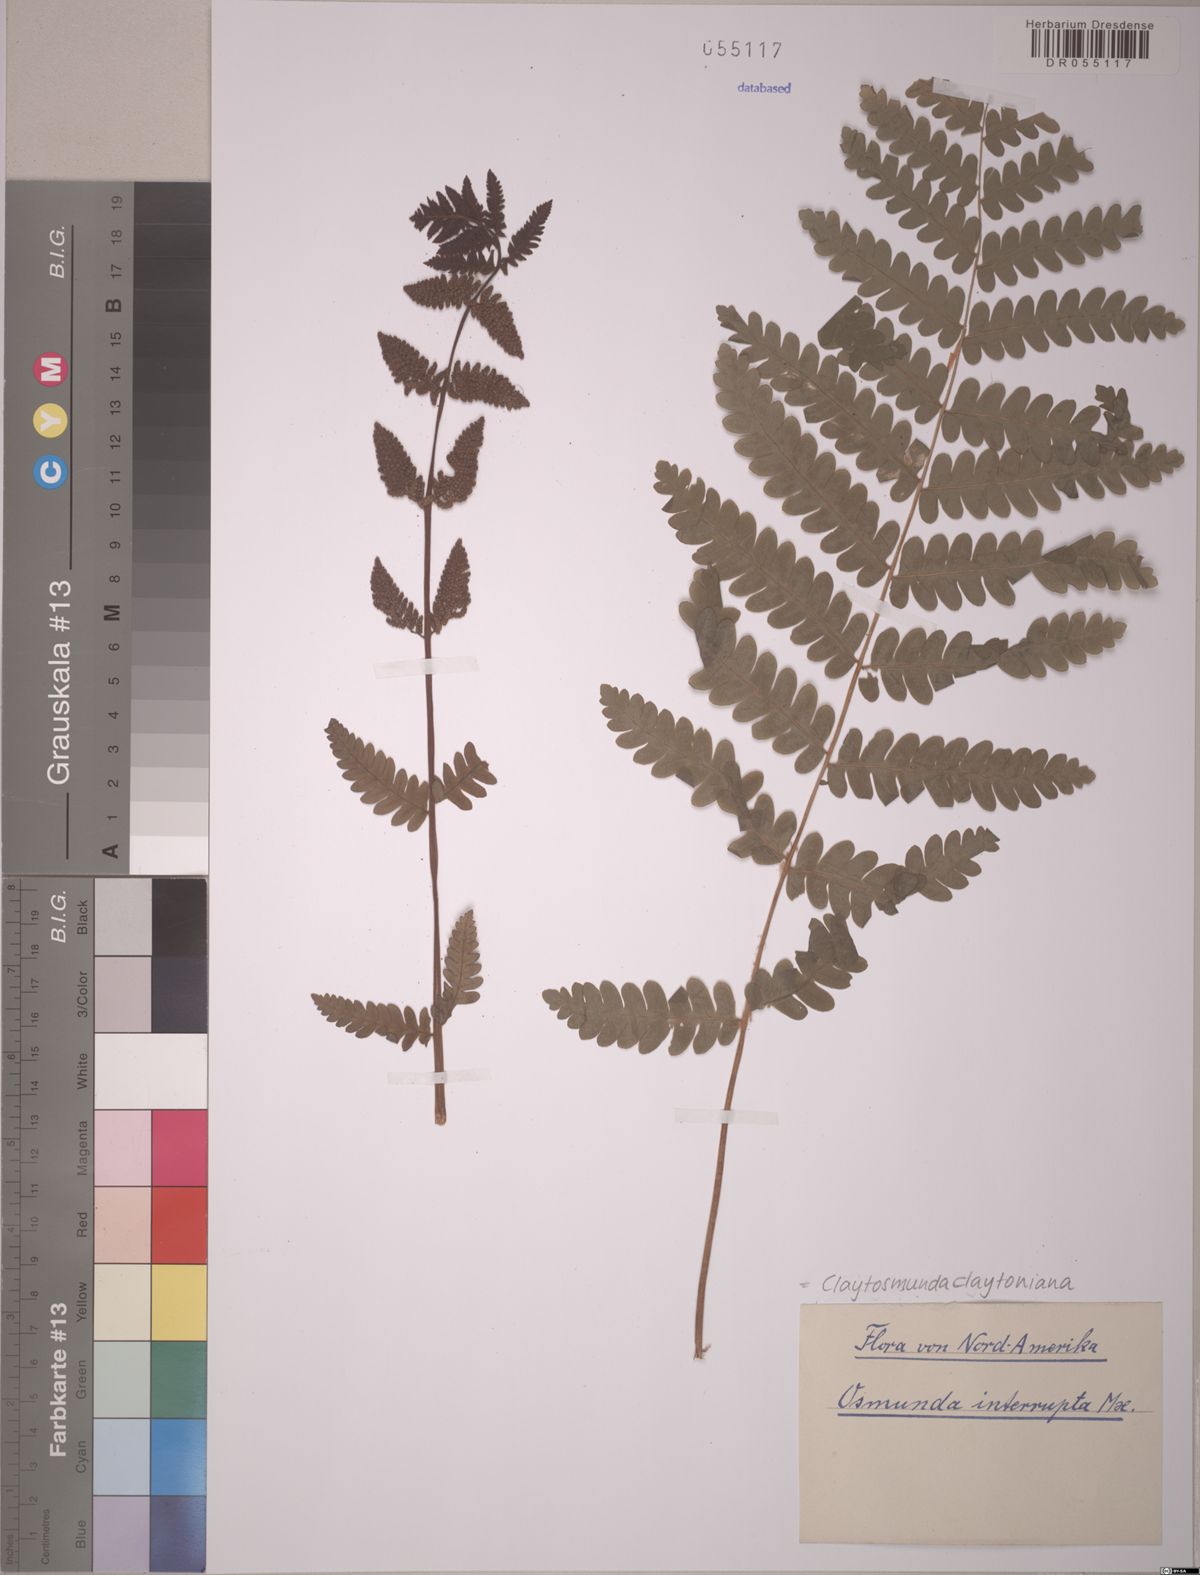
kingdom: Plantae
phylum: Tracheophyta
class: Polypodiopsida
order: Osmundales
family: Osmundaceae
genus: Claytosmunda
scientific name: Claytosmunda claytoniana
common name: Clayton's fern
